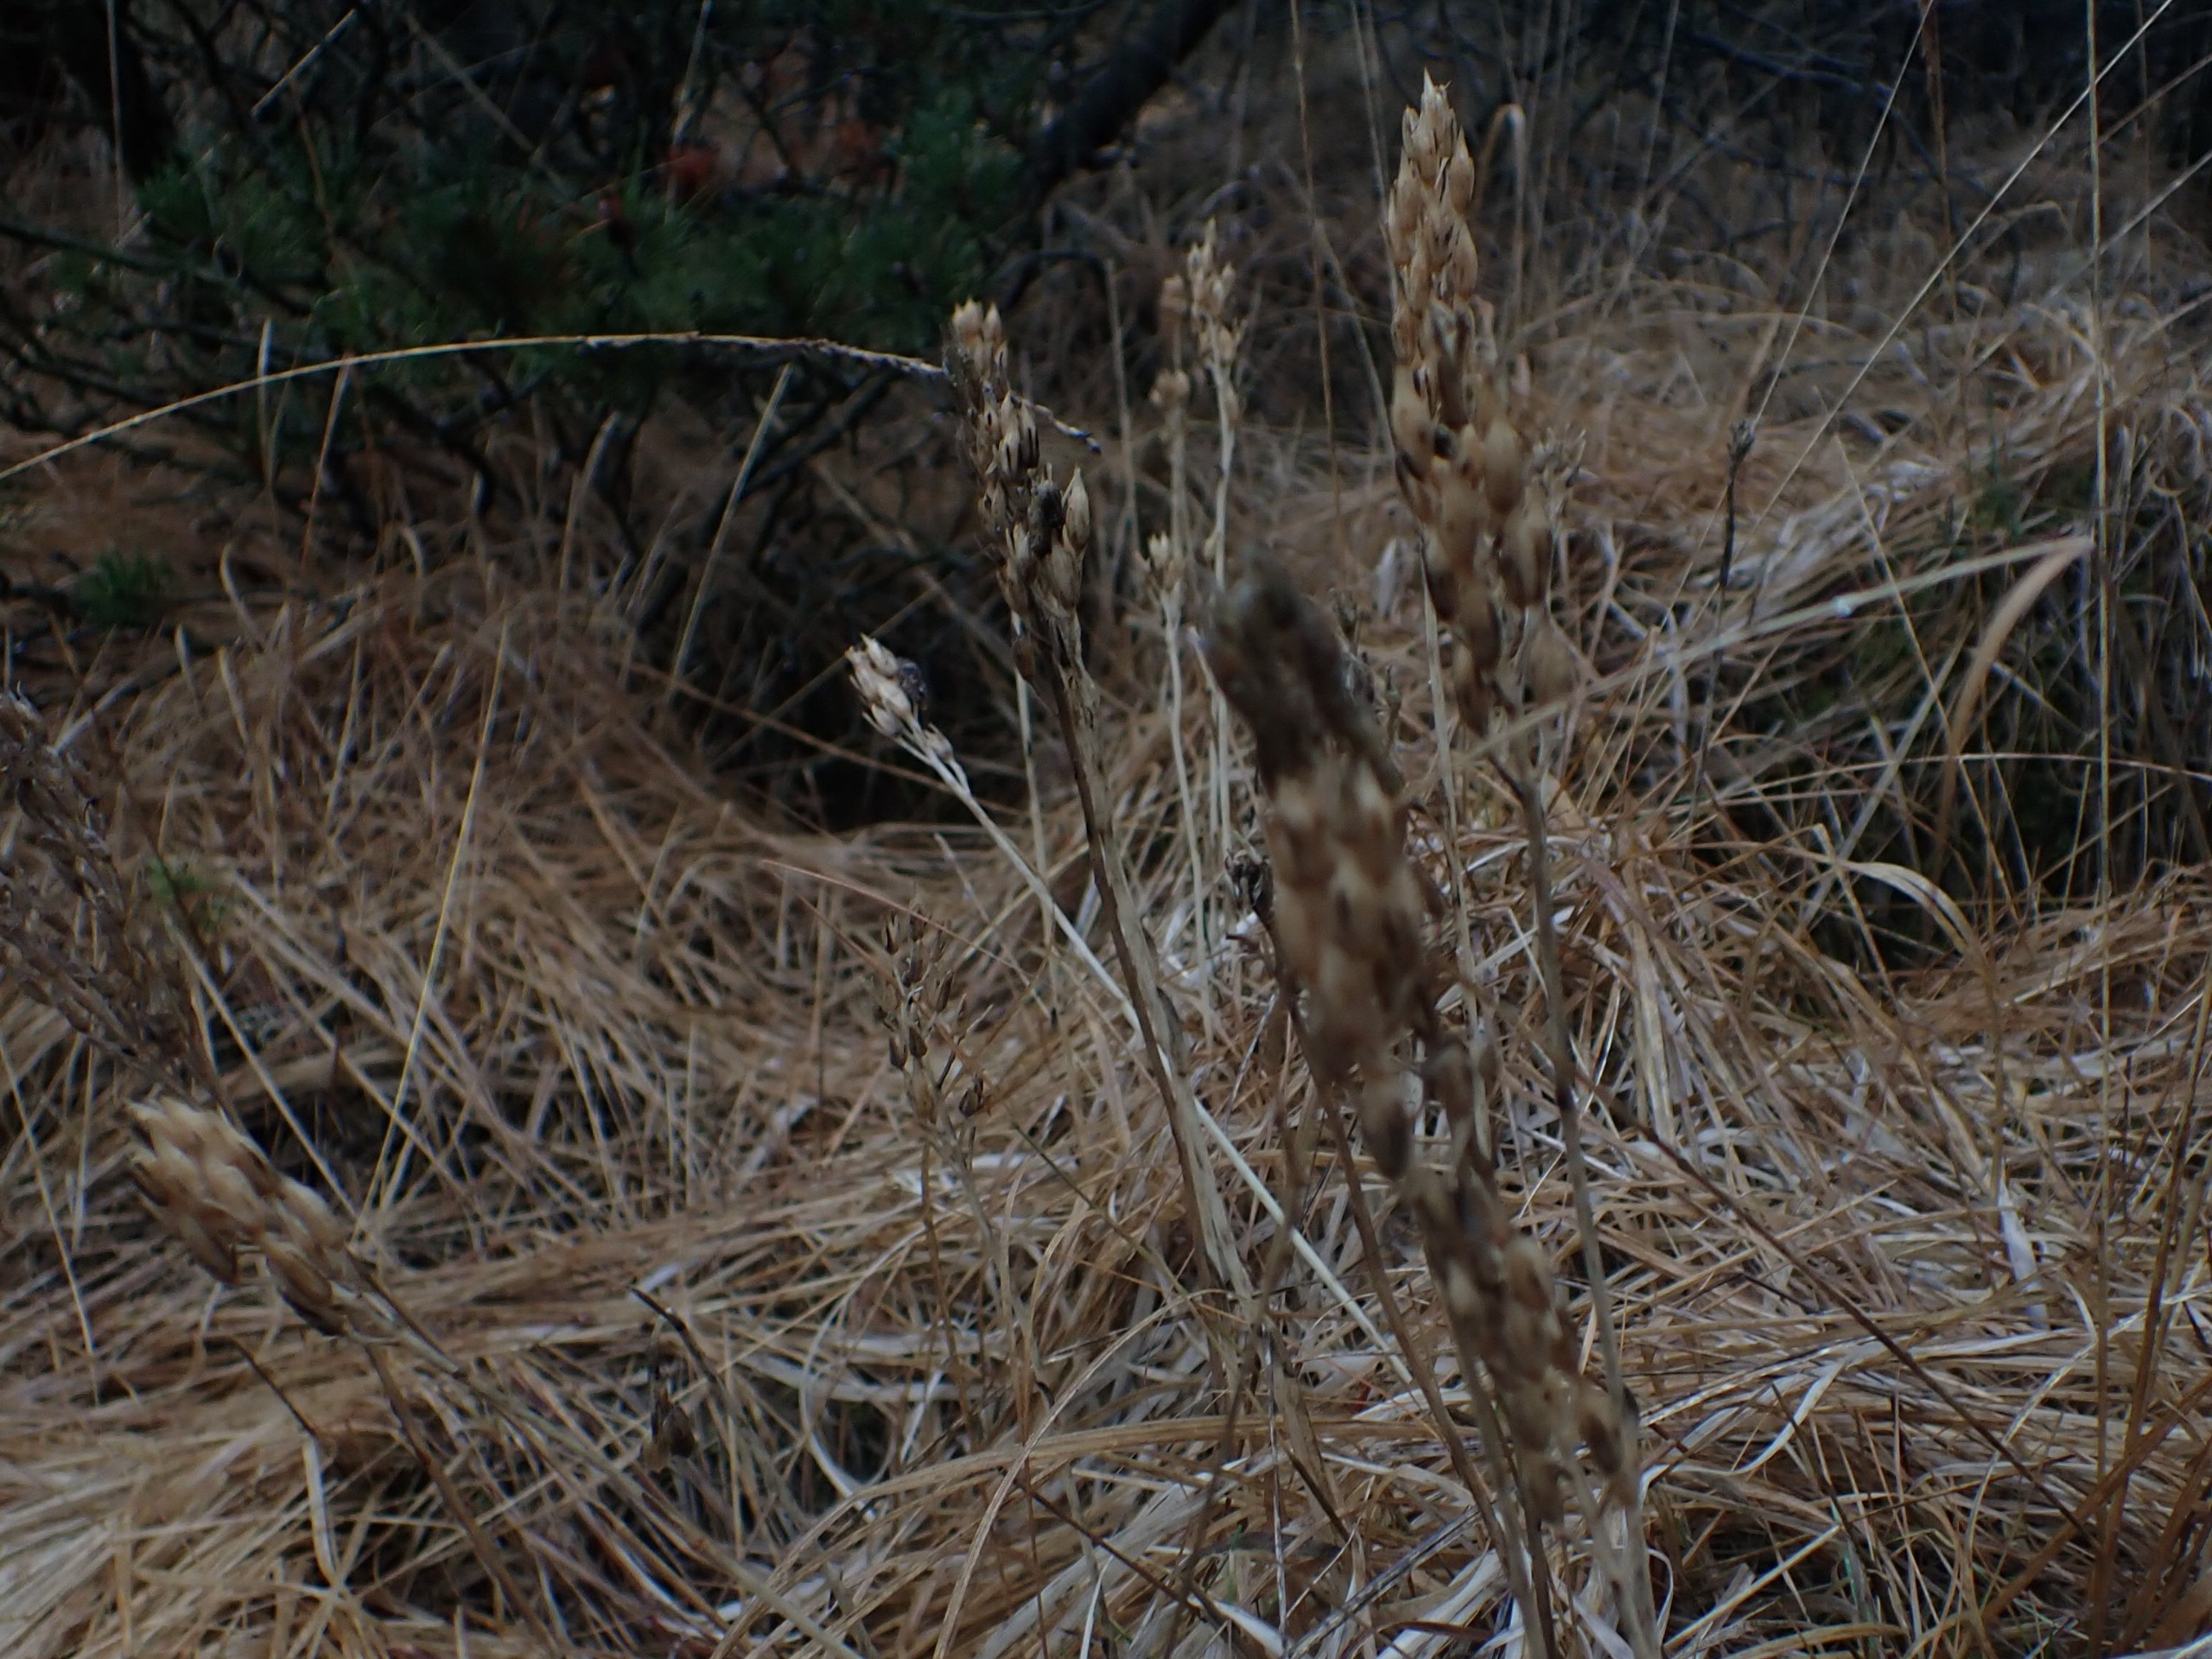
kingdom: Plantae
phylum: Tracheophyta
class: Liliopsida
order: Dioscoreales
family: Nartheciaceae
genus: Narthecium
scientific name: Narthecium ossifragum
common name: Benbræk
